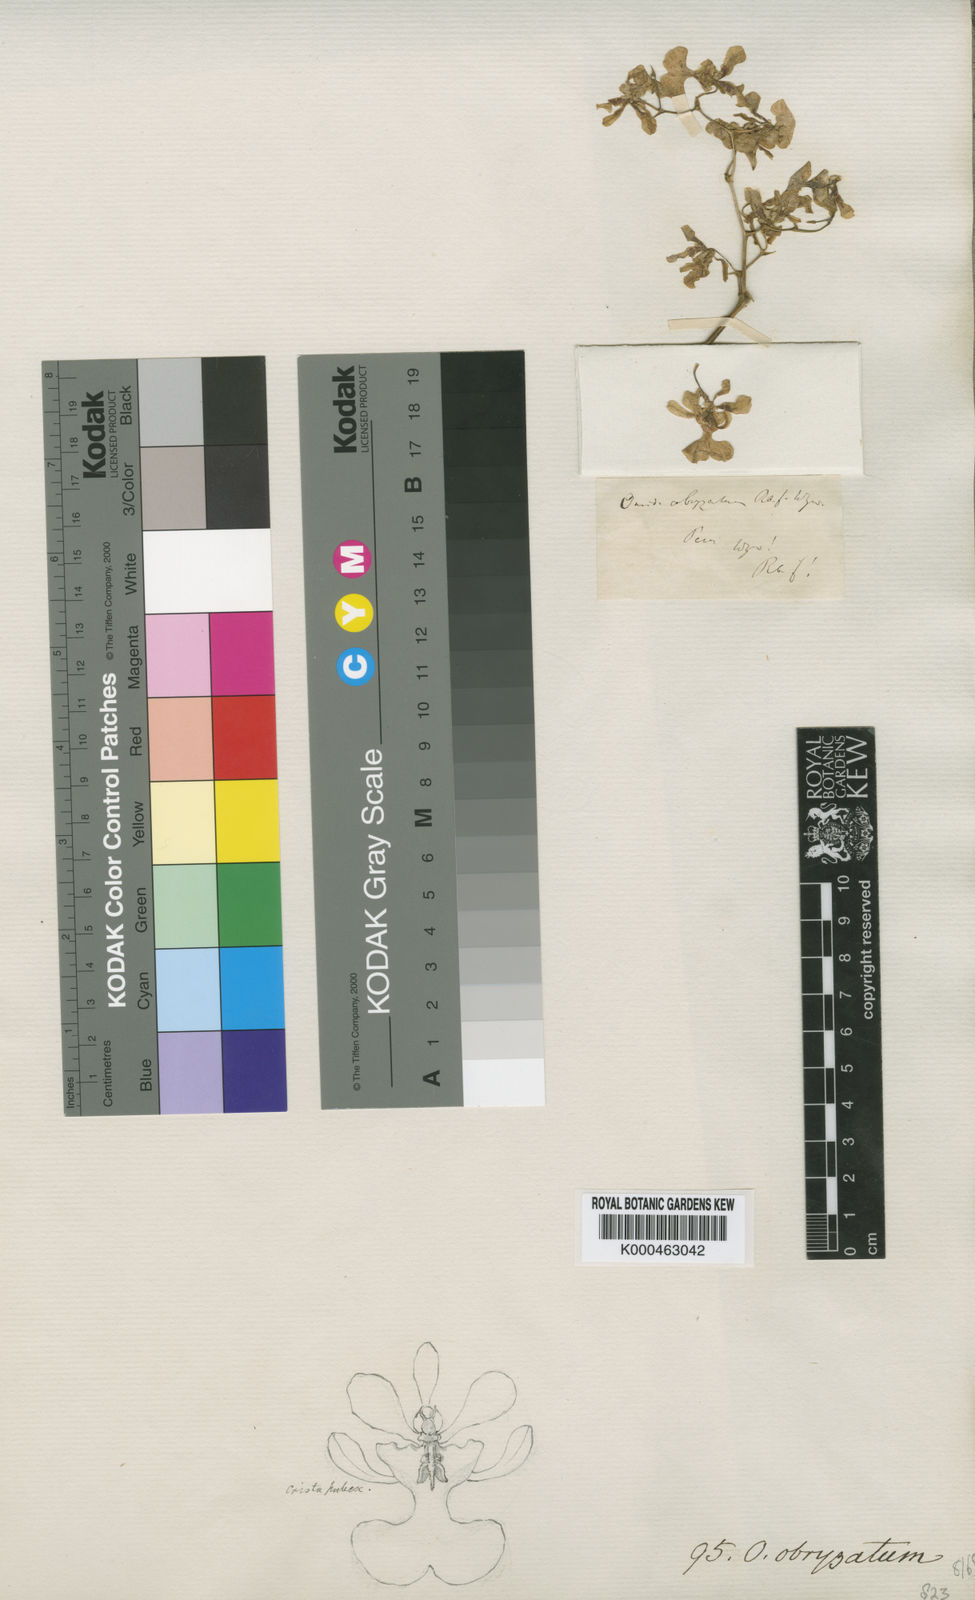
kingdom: Plantae
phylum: Tracheophyta
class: Liliopsida
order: Asparagales
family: Orchidaceae
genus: Oncidium
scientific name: Oncidium obryzatum
